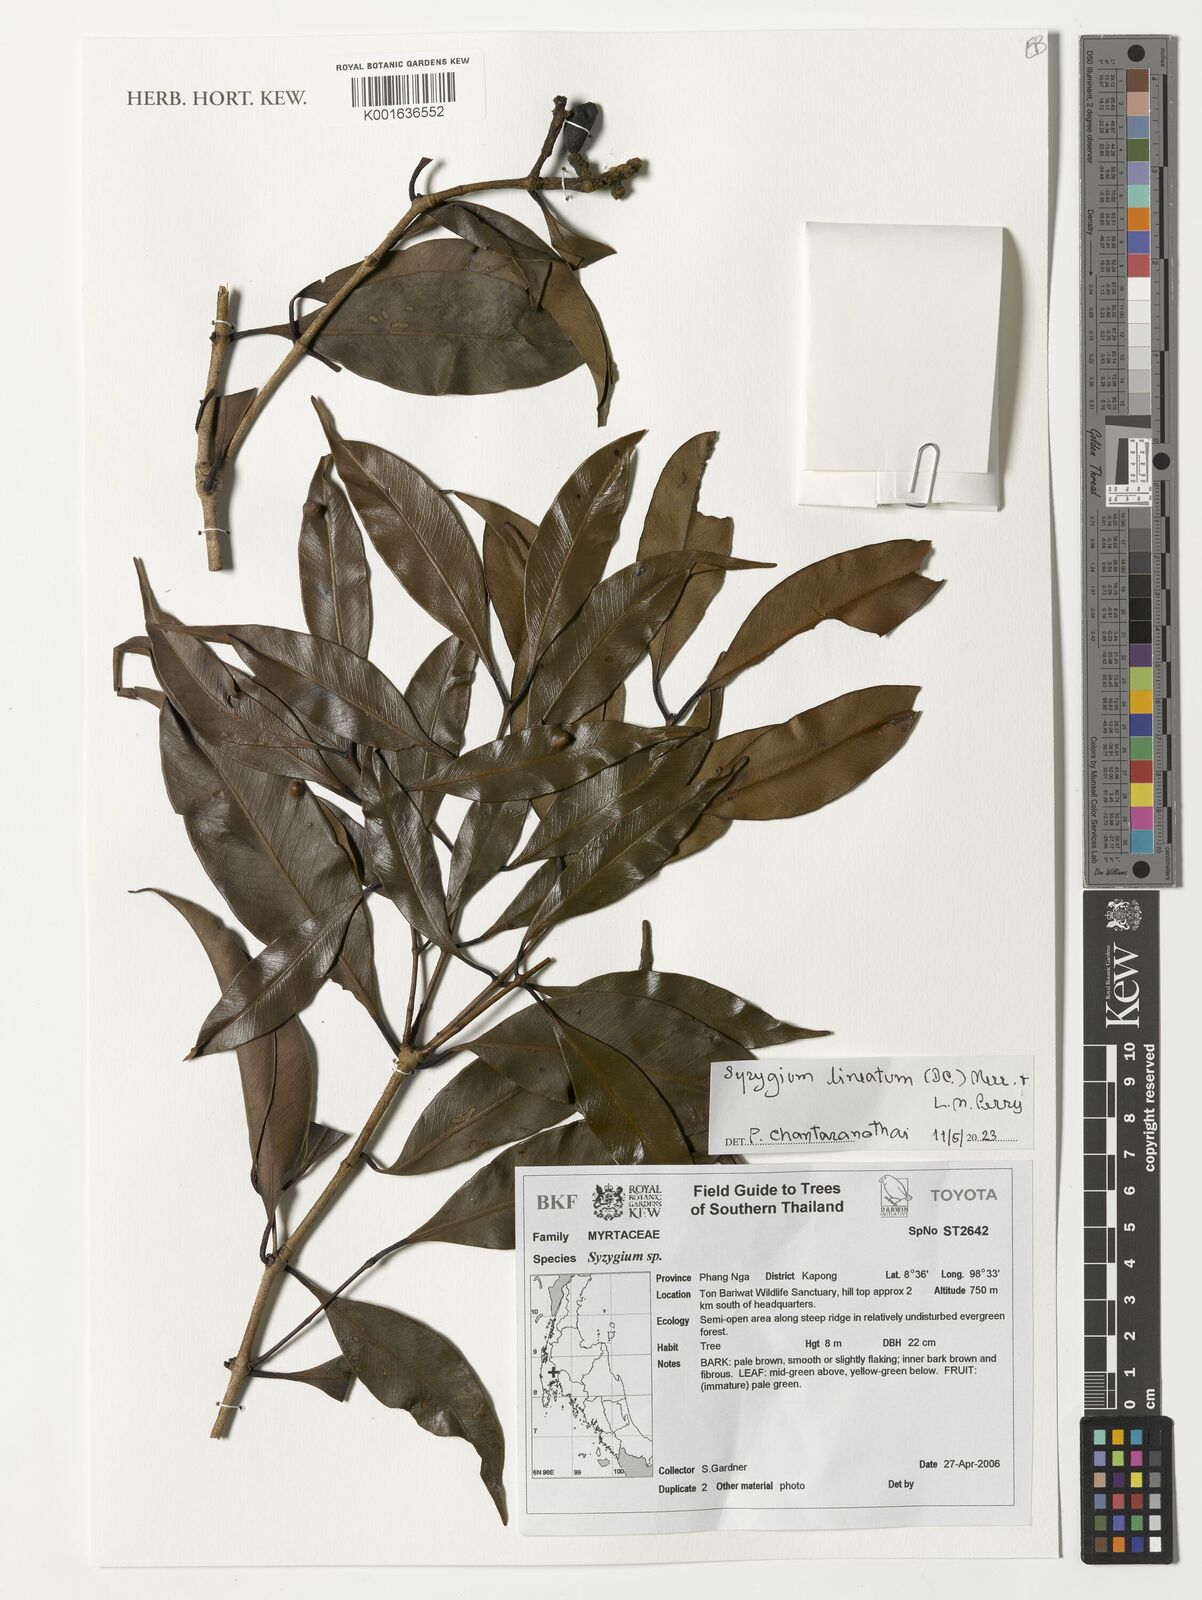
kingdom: Plantae
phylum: Tracheophyta
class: Magnoliopsida
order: Myrtales
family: Myrtaceae
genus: Syzygium
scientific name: Syzygium lineatum
